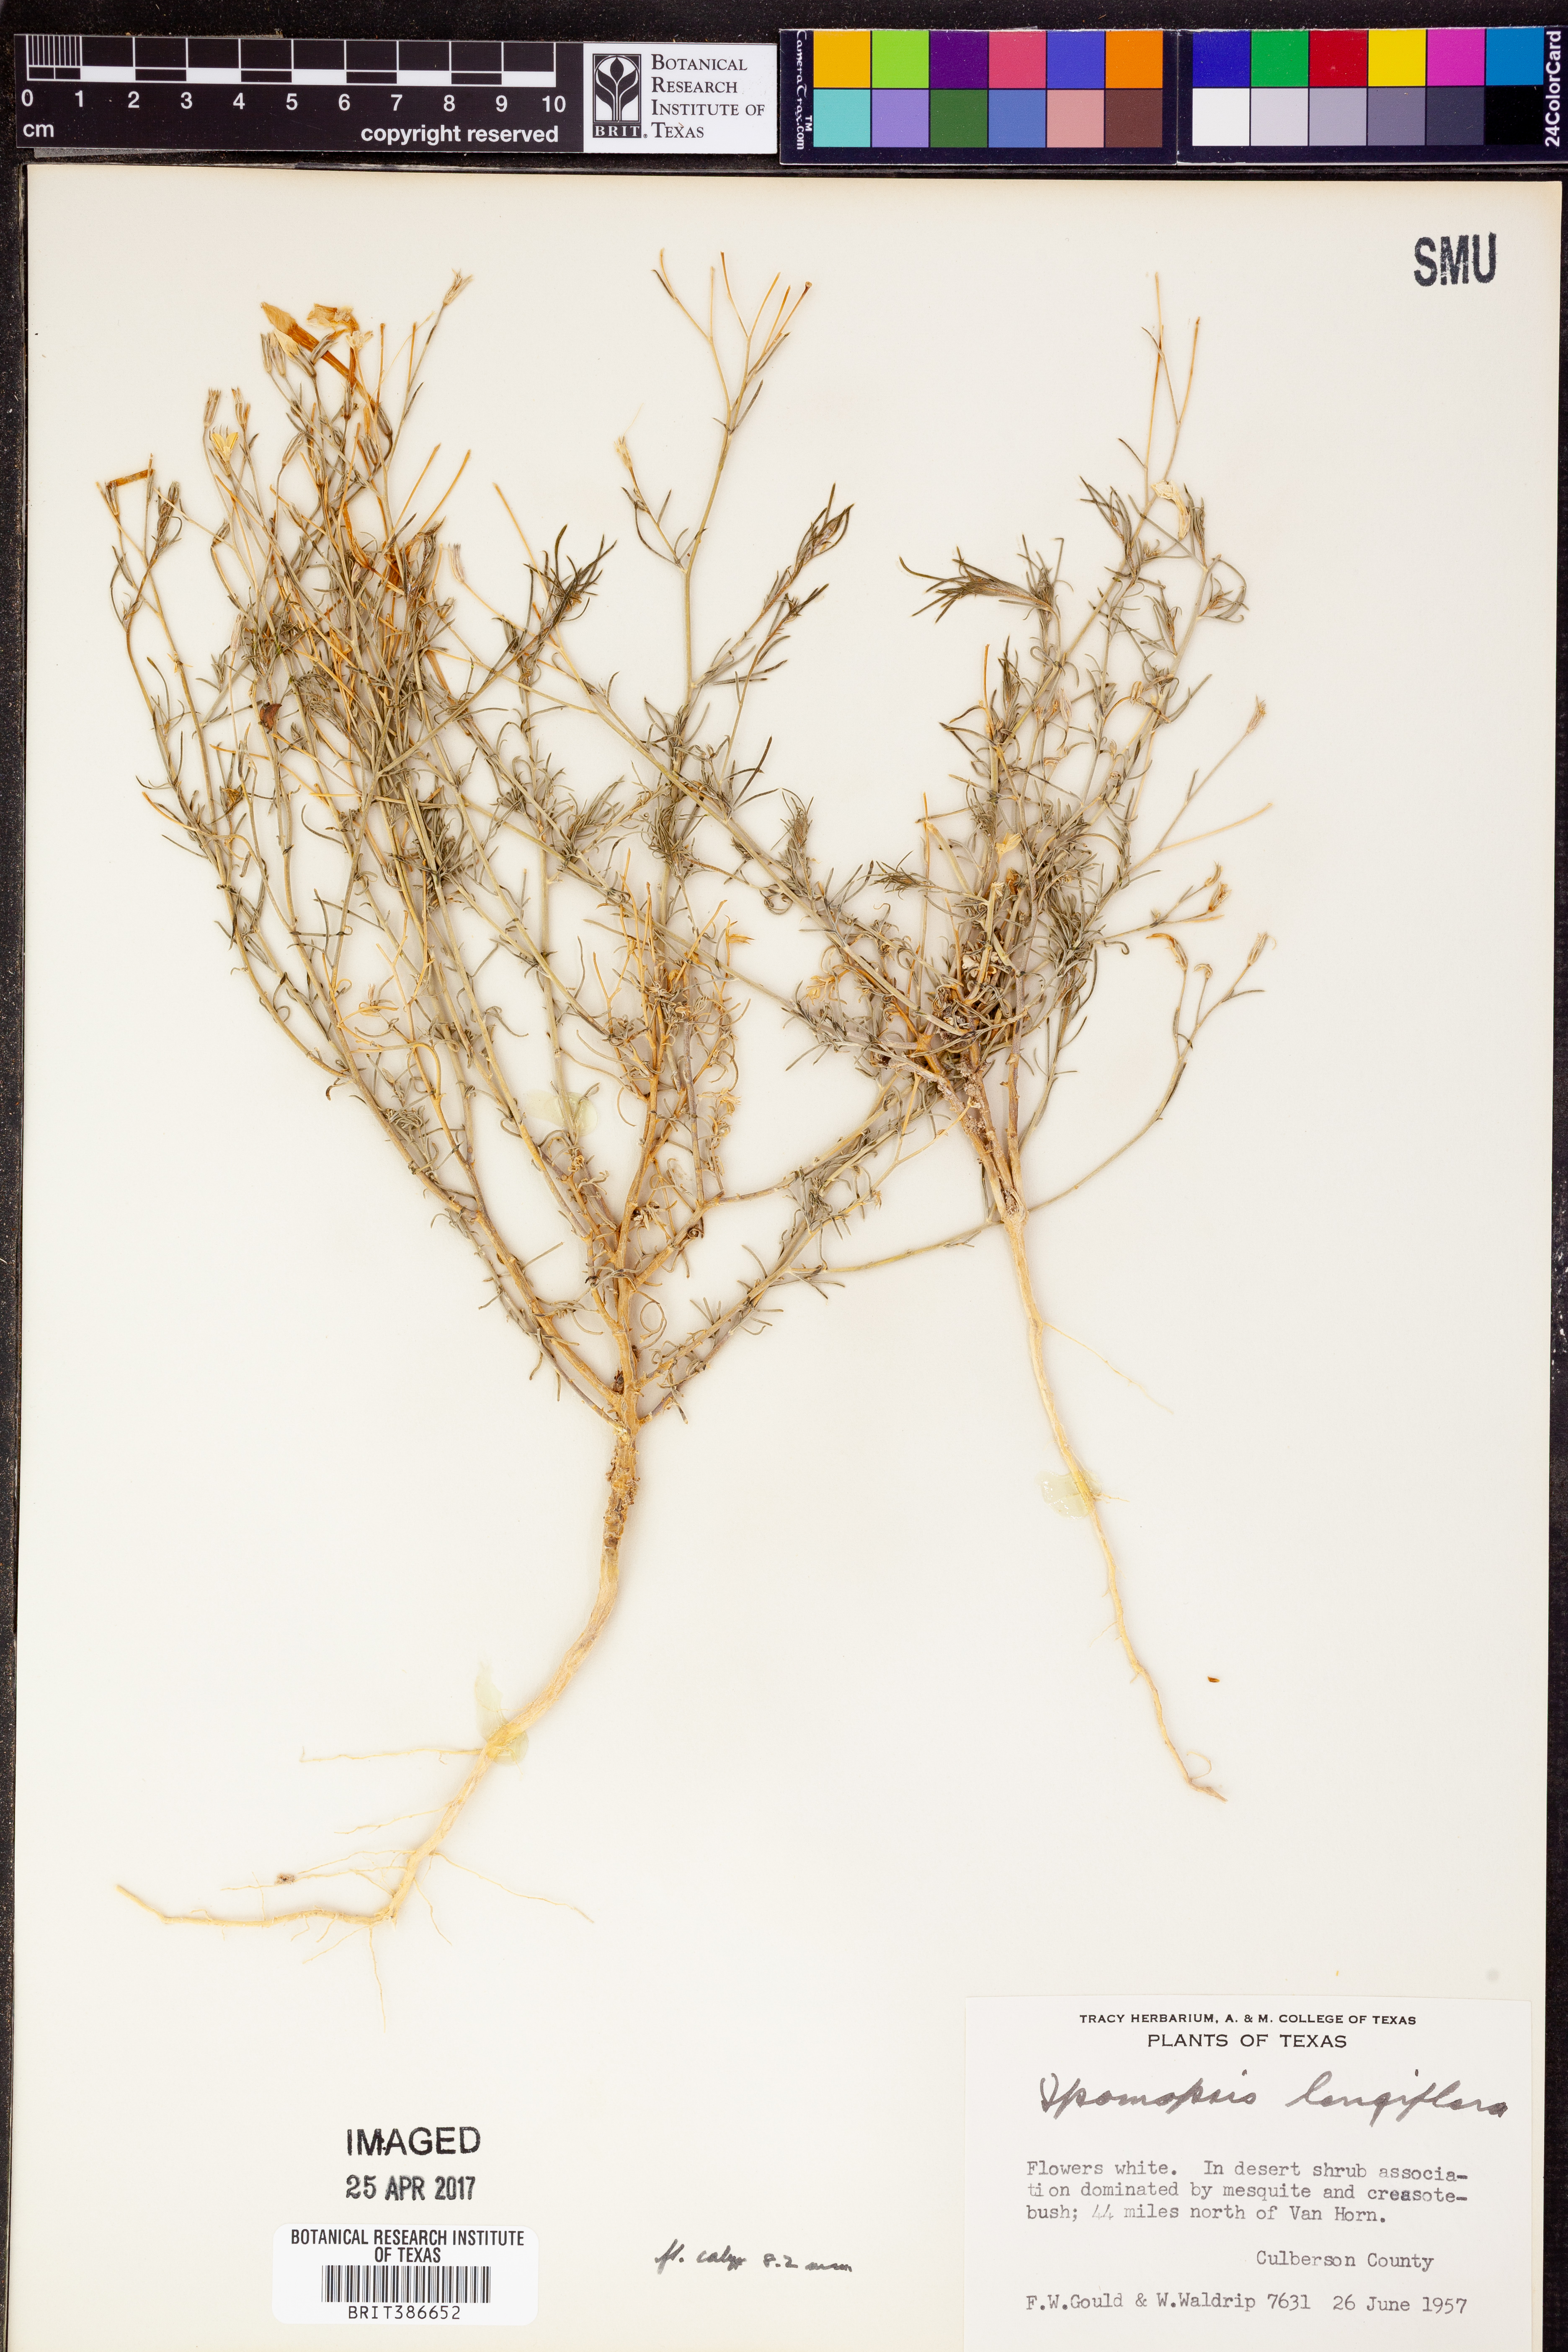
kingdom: Plantae
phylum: Tracheophyta
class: Magnoliopsida
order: Ericales
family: Polemoniaceae
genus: Ipomopsis
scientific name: Ipomopsis longiflora
